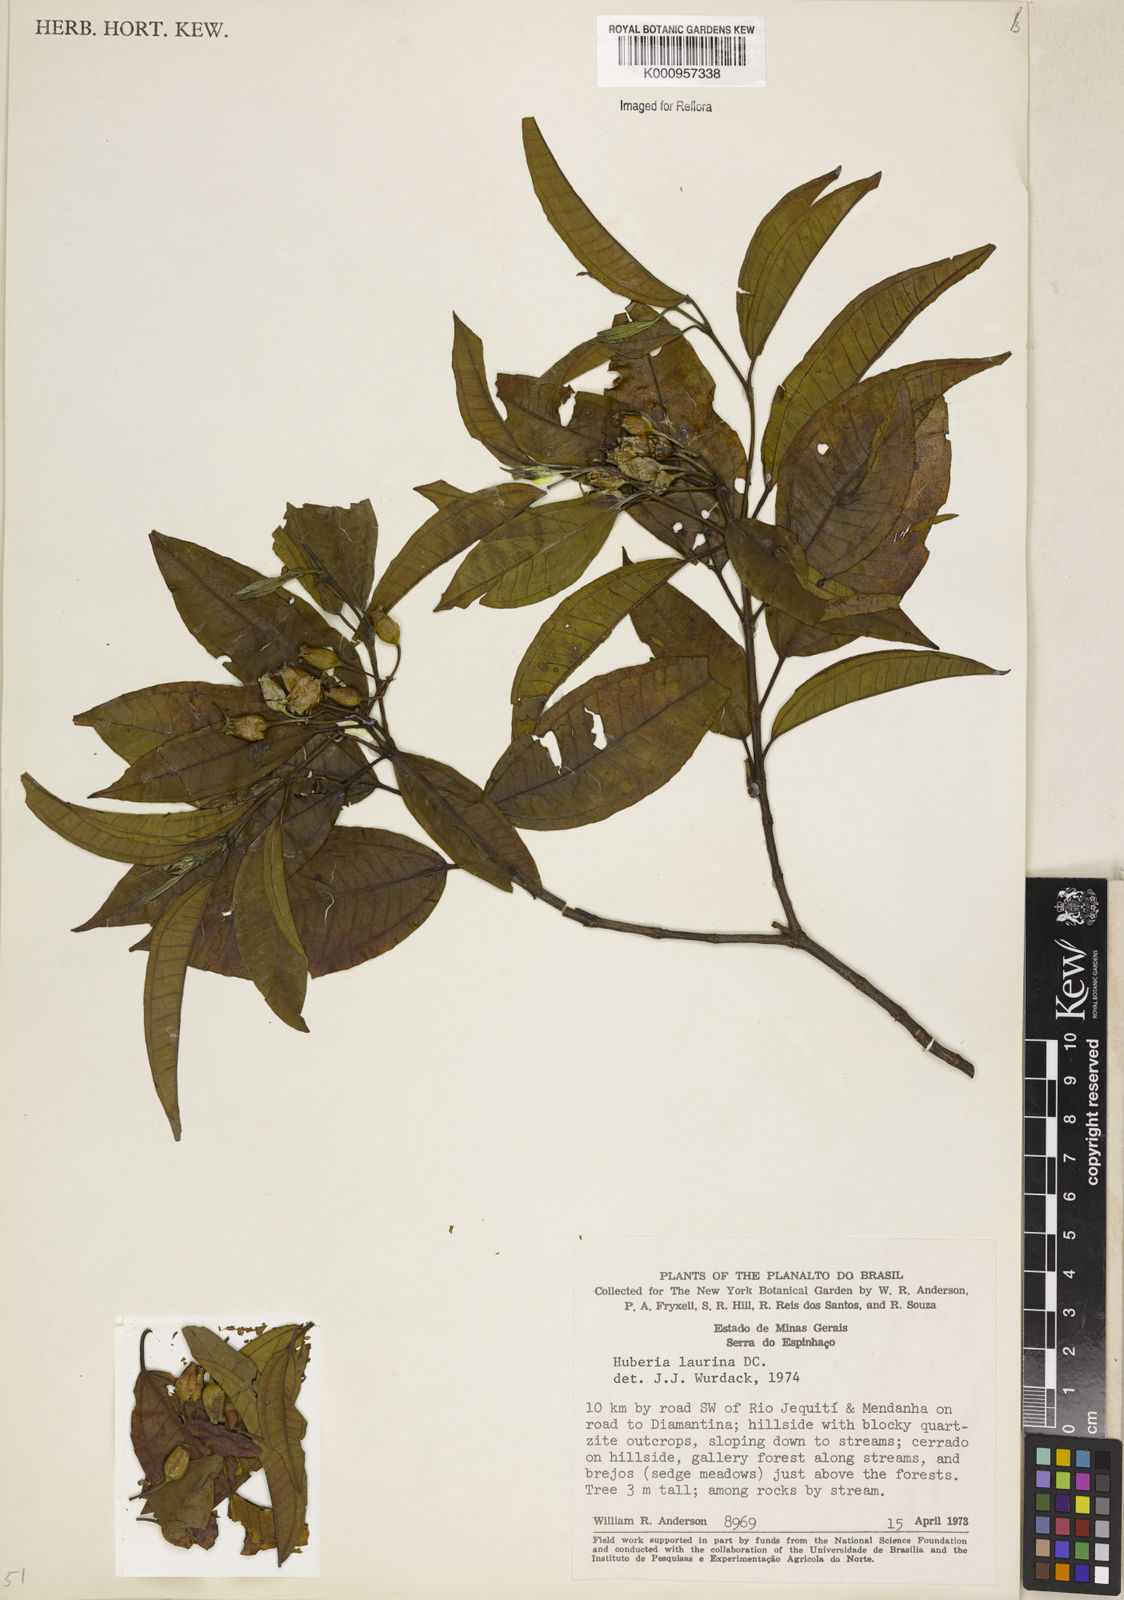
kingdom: Plantae
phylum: Tracheophyta
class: Magnoliopsida
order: Myrtales
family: Melastomataceae
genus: Huberia
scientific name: Huberia laurina
